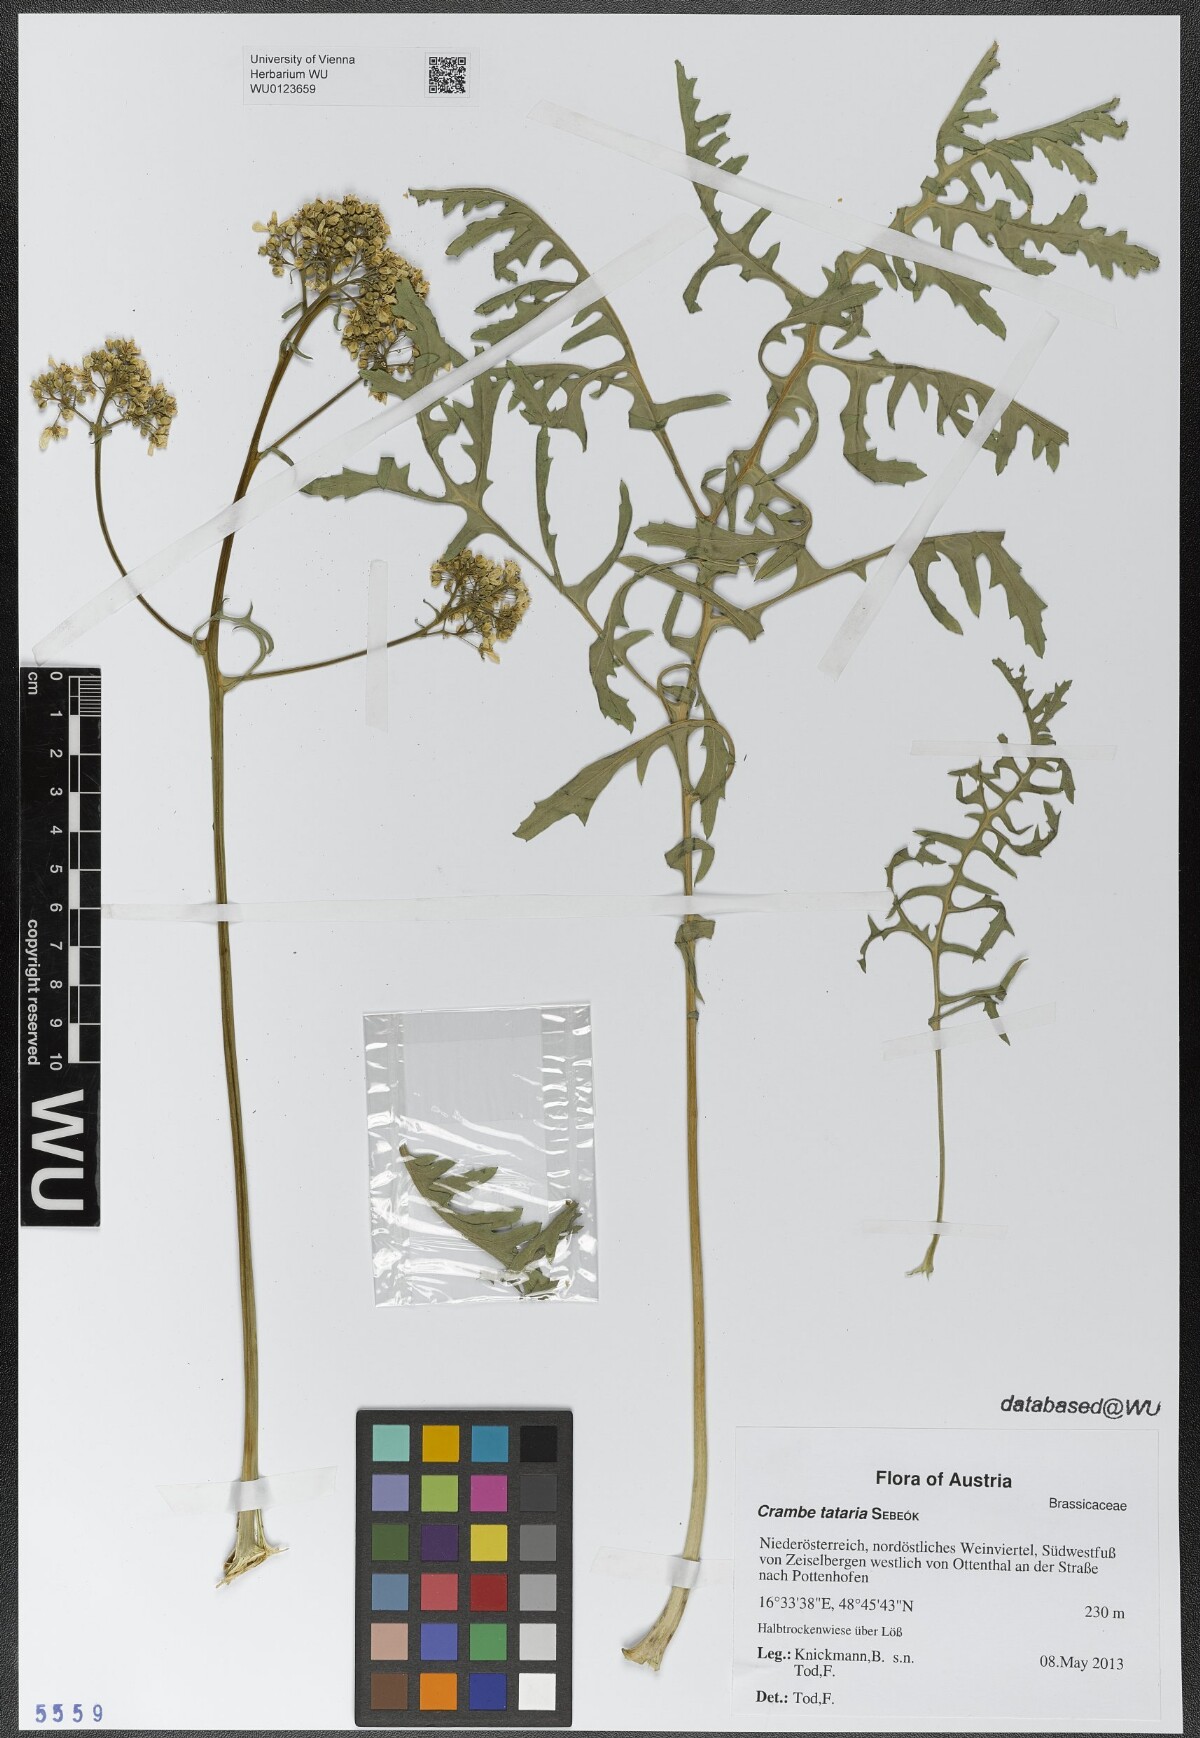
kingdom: Plantae
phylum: Tracheophyta
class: Magnoliopsida
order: Brassicales
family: Brassicaceae
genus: Crambe
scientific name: Crambe tataria
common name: Tartarian breadplant
